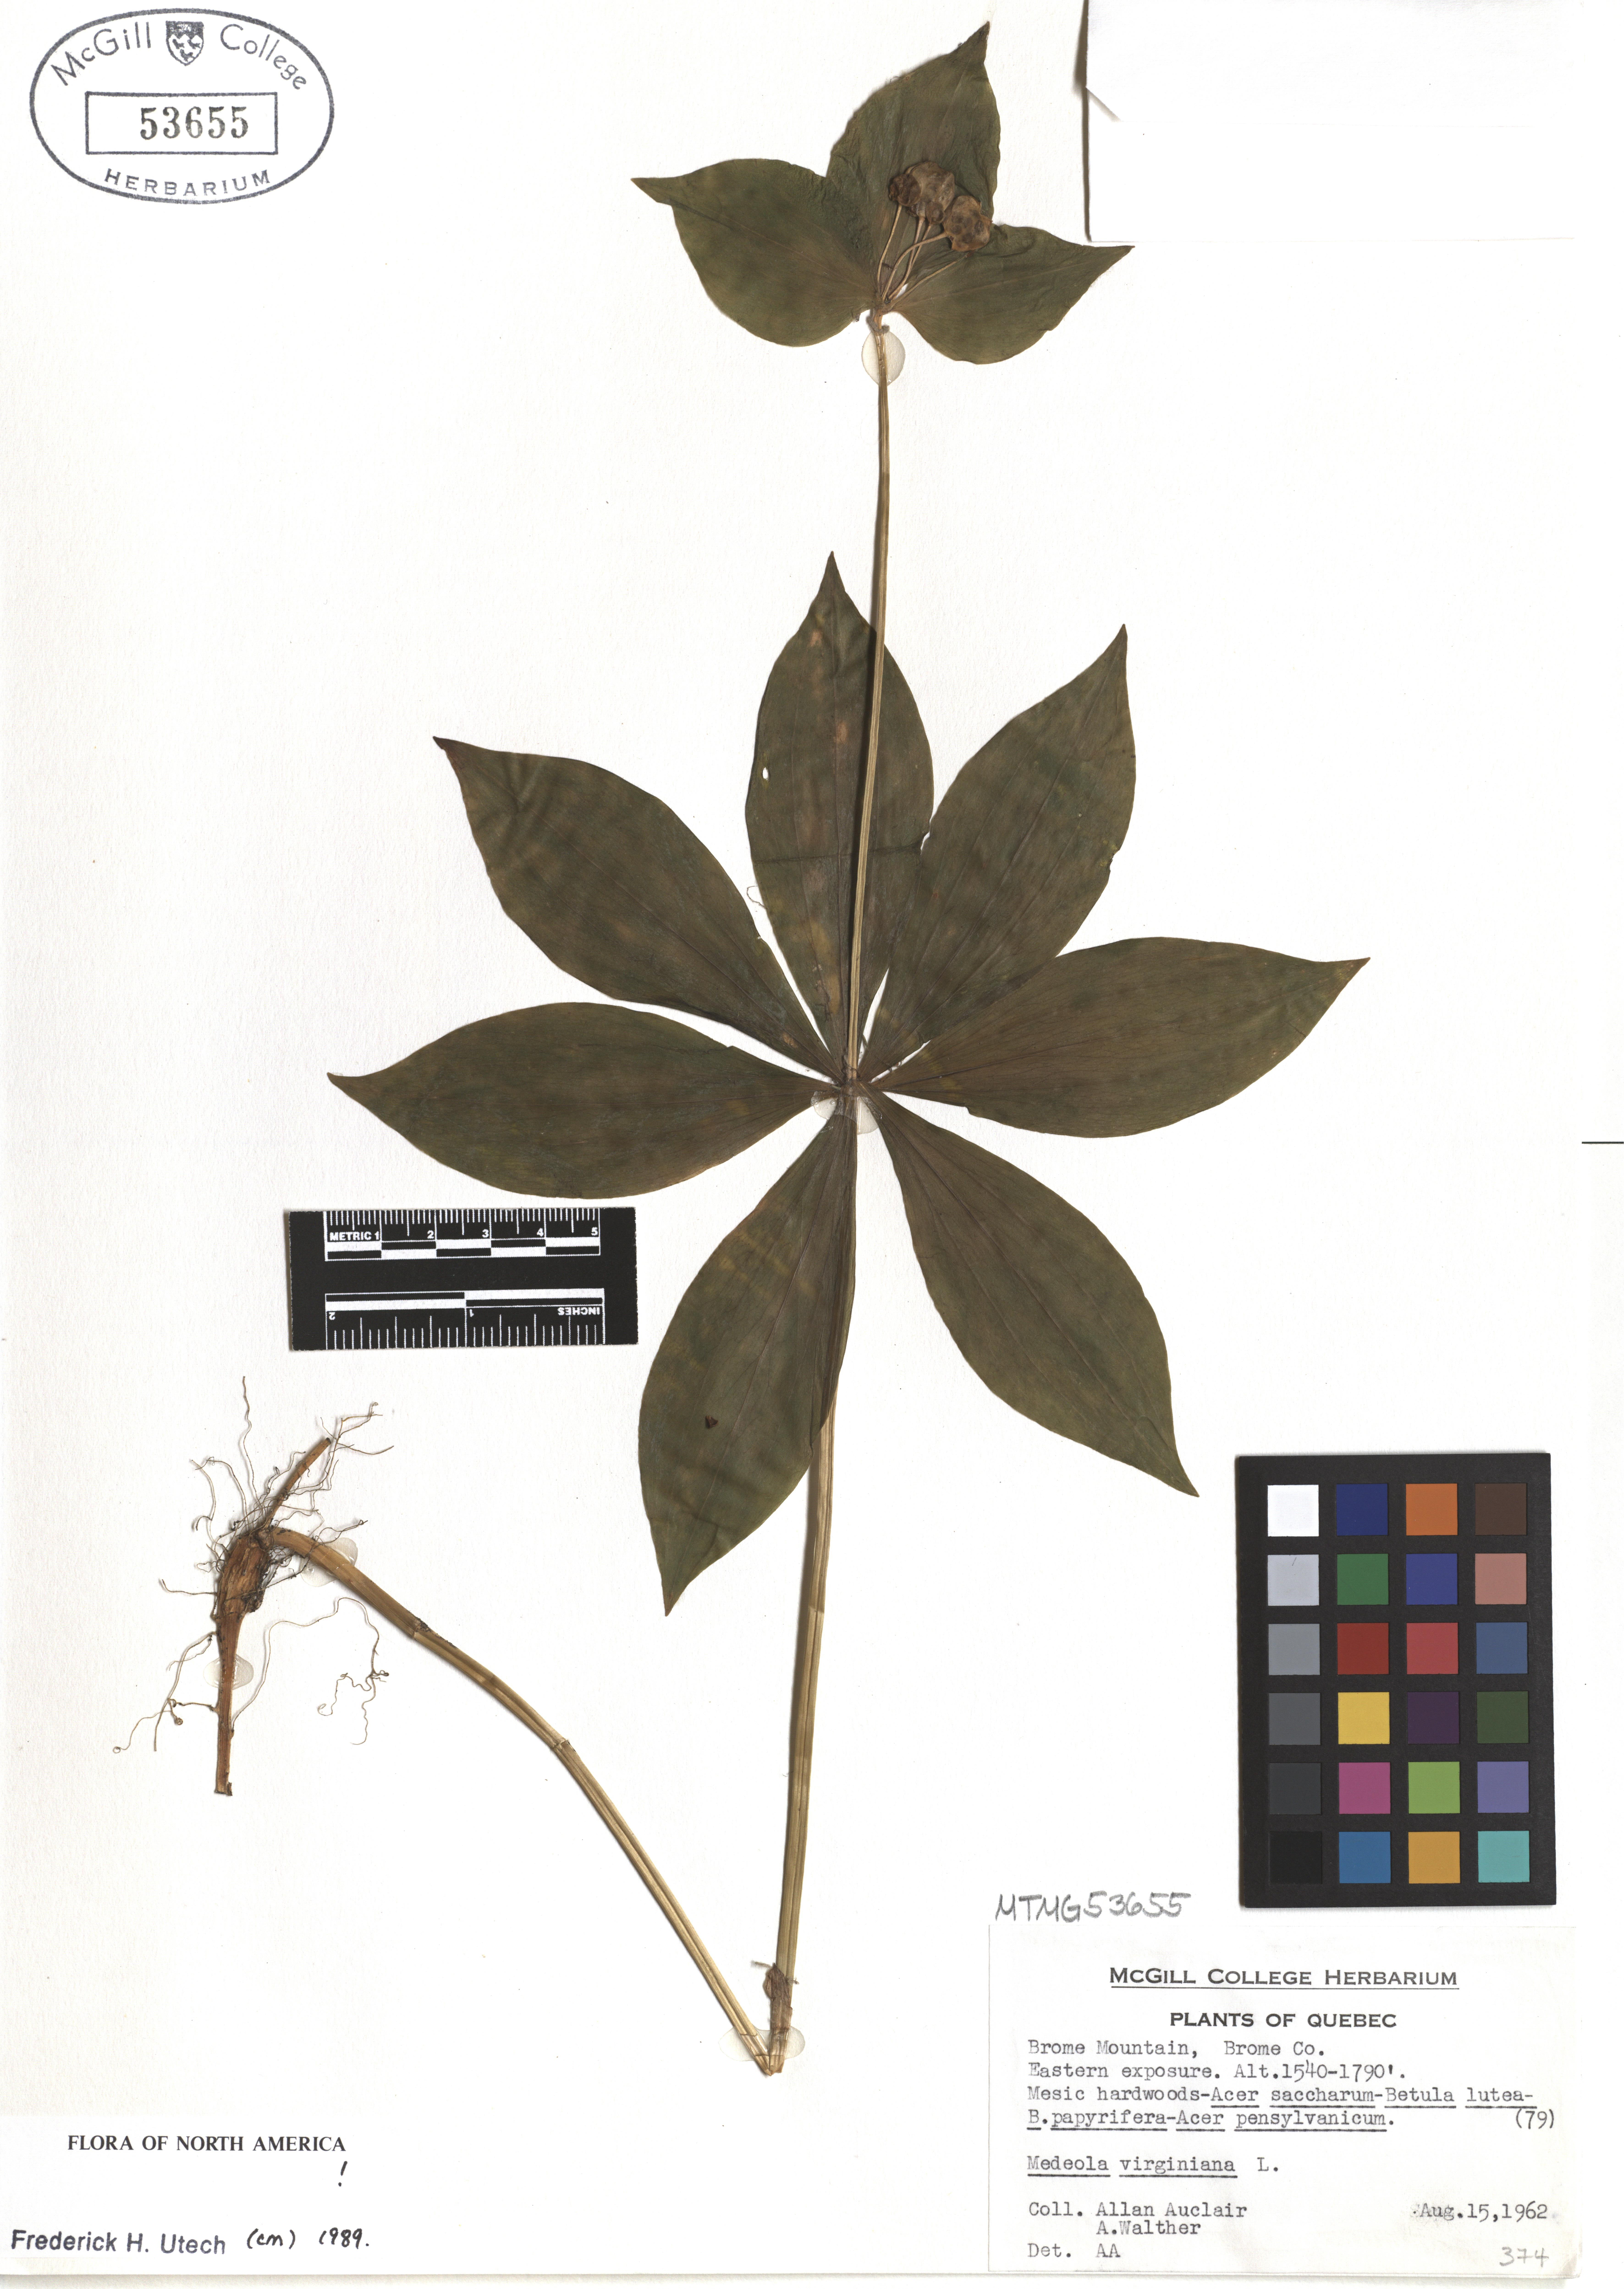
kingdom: Plantae
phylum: Tracheophyta
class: Liliopsida
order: Liliales
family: Liliaceae
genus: Medeola
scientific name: Medeola virginiana
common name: Indian cucumber-root
